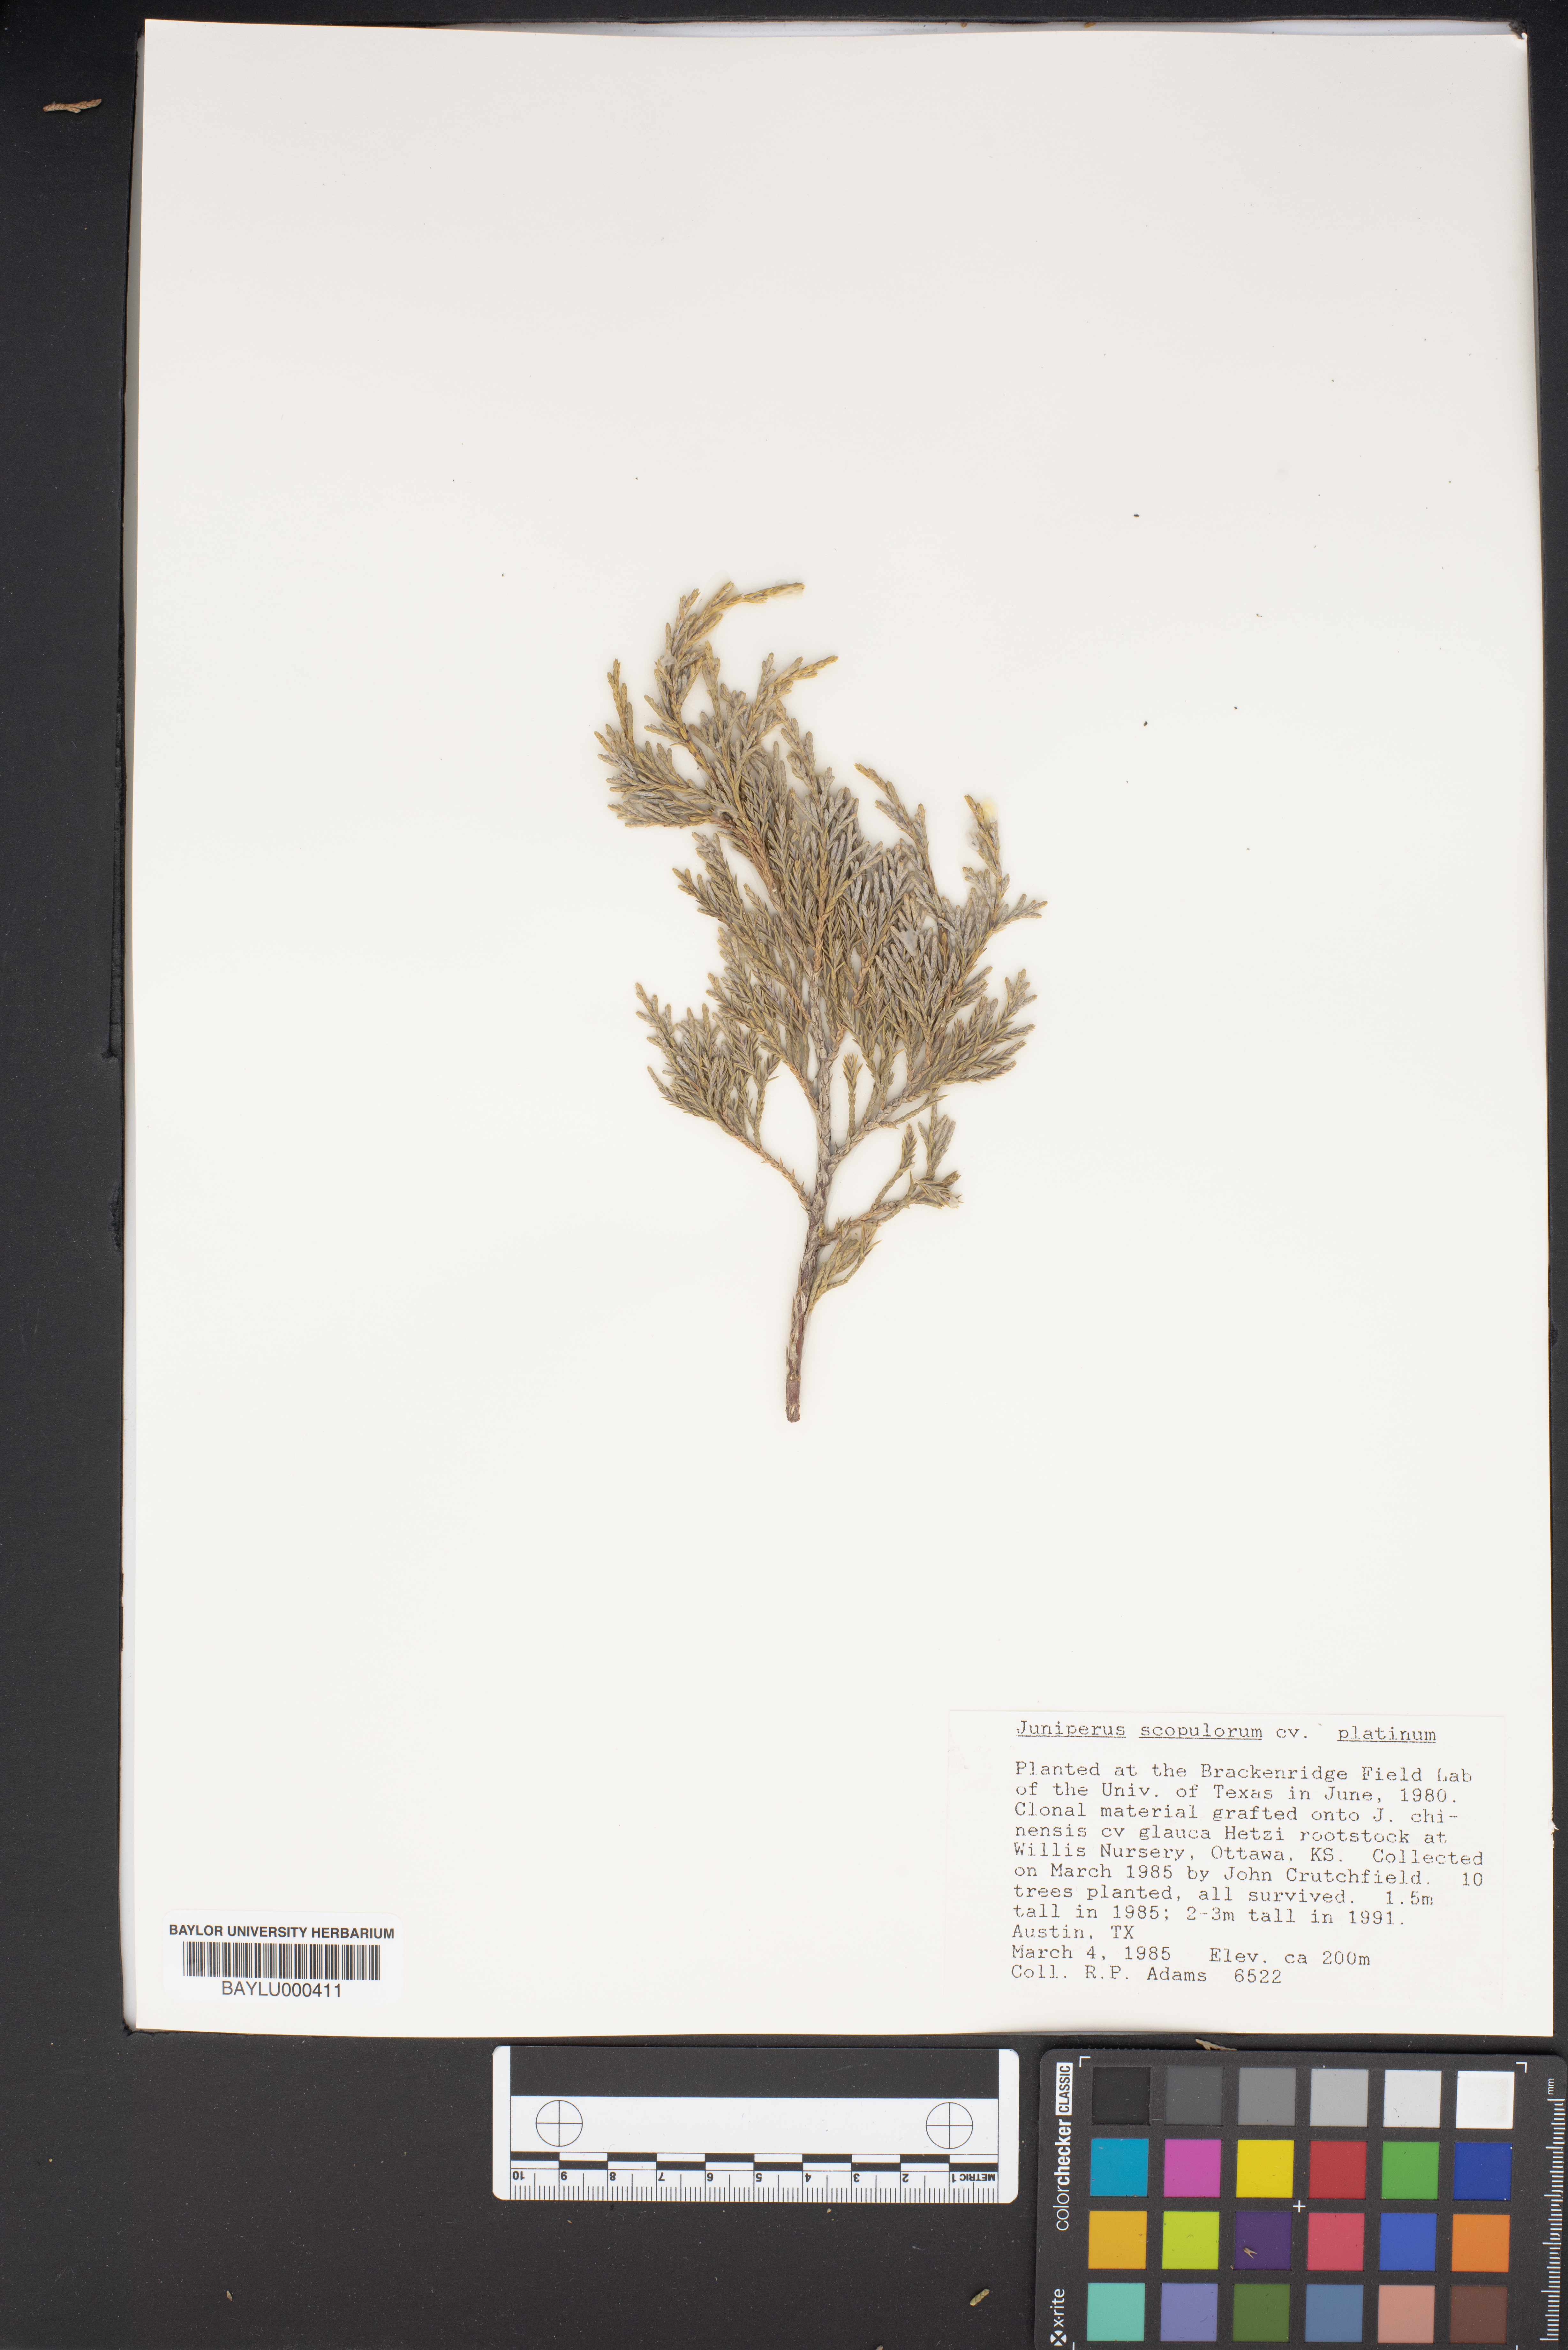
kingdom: Plantae
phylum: Tracheophyta
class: Pinopsida
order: Pinales
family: Cupressaceae
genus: Juniperus
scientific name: Juniperus scopulorum
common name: Rocky mountain juniper
